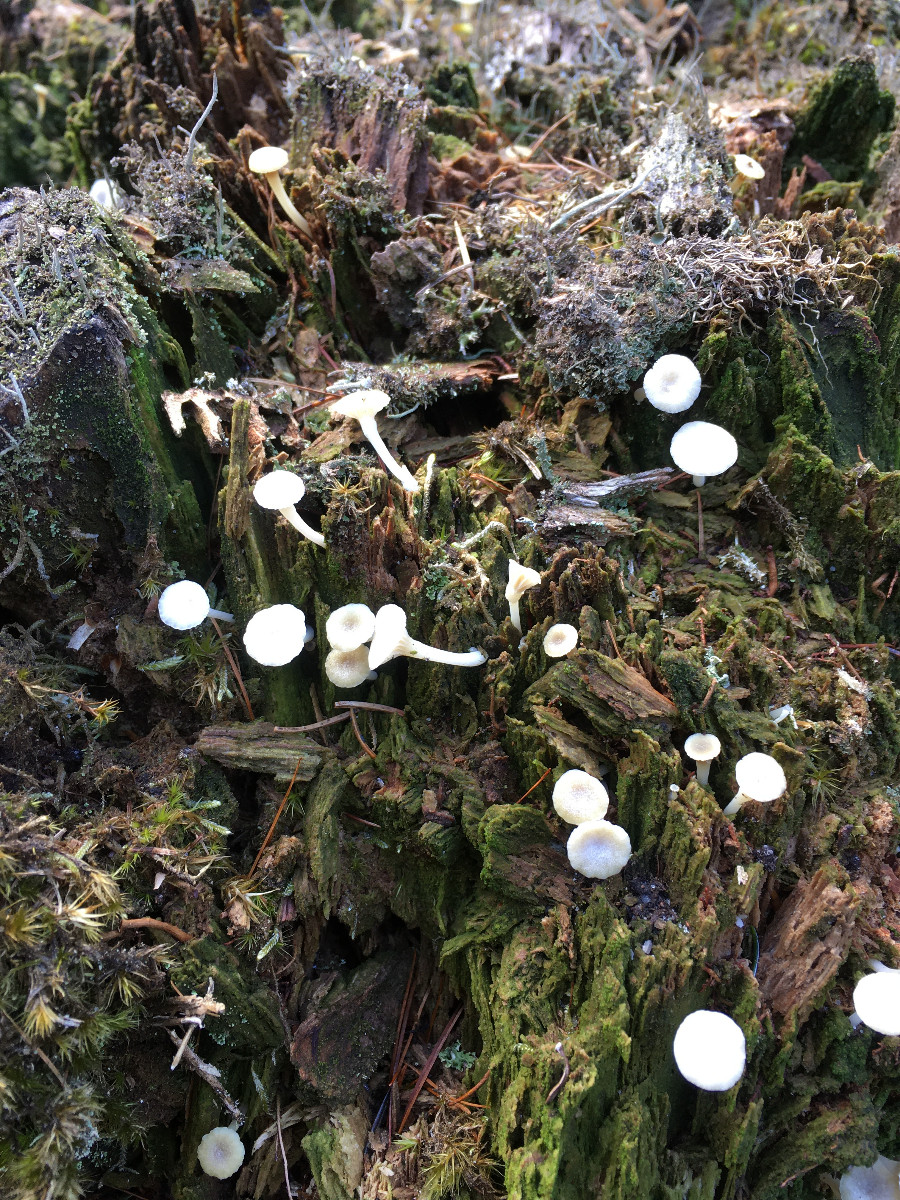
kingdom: Fungi
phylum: Basidiomycota
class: Agaricomycetes
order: Agaricales
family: Hygrophoraceae
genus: Lichenomphalia
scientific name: Lichenomphalia umbellifera
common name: tørve-lavhat
